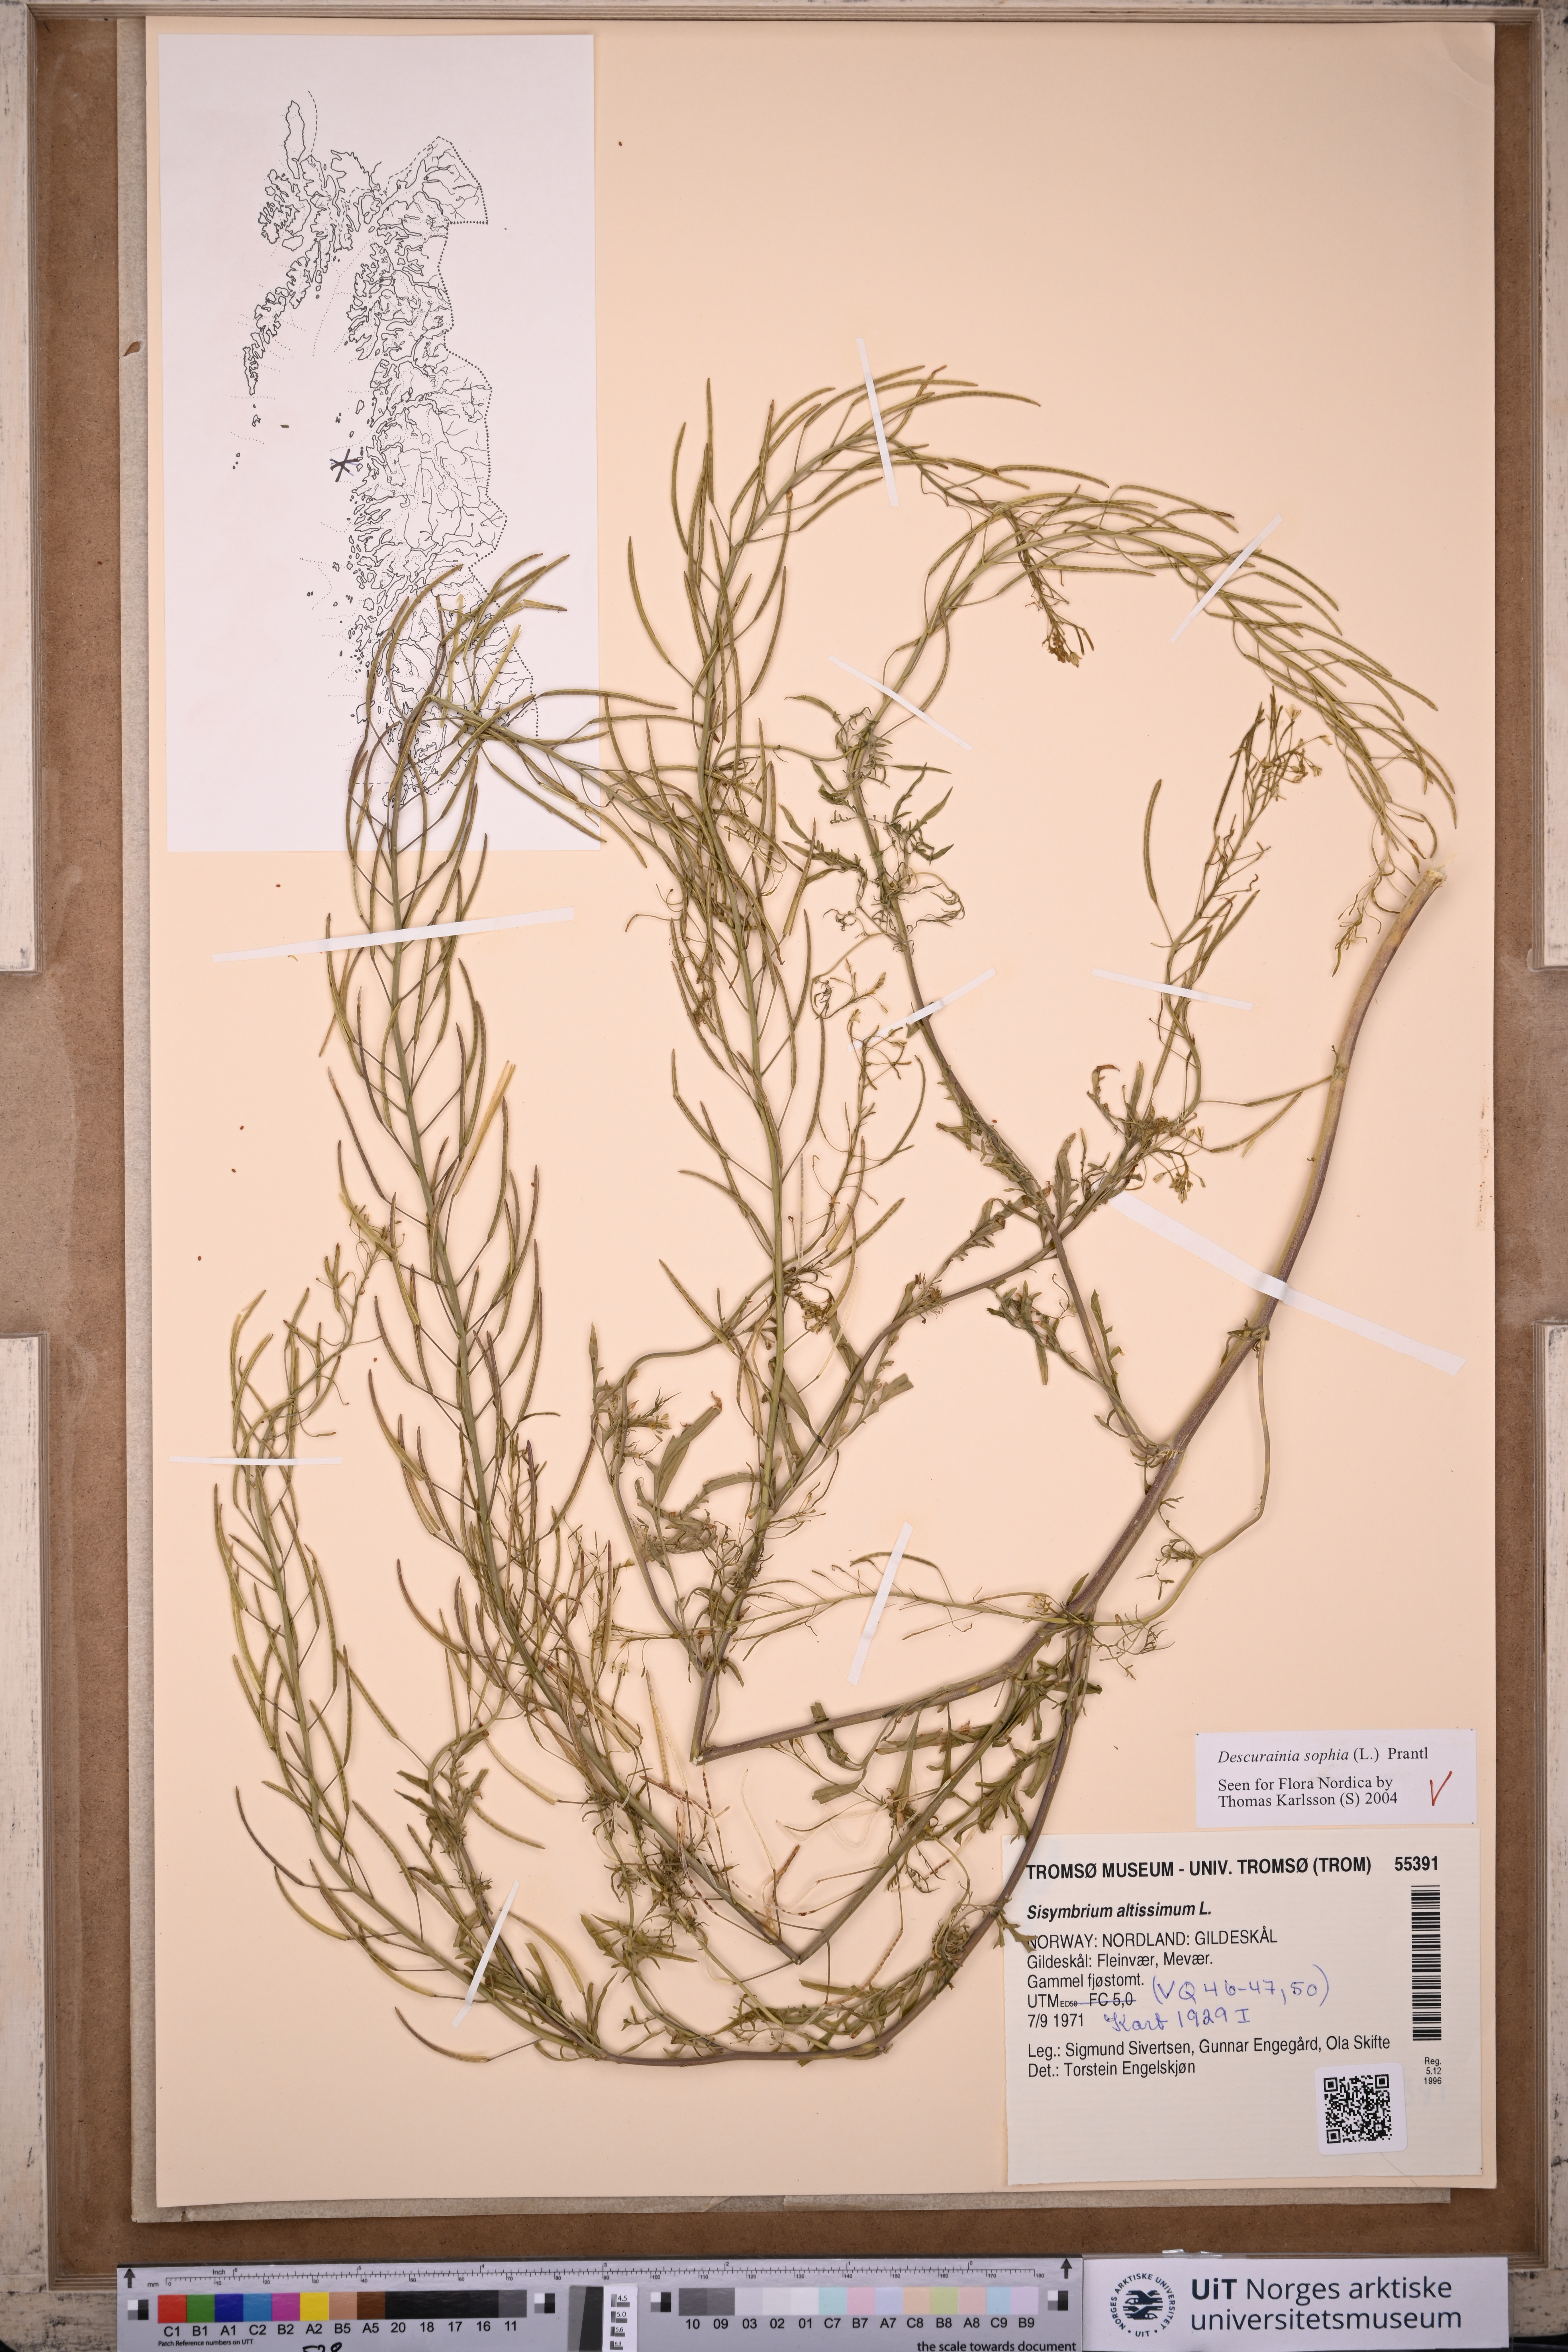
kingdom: Plantae
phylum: Tracheophyta
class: Magnoliopsida
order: Brassicales
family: Brassicaceae
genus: Descurainia
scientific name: Descurainia sophia
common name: Flixweed
